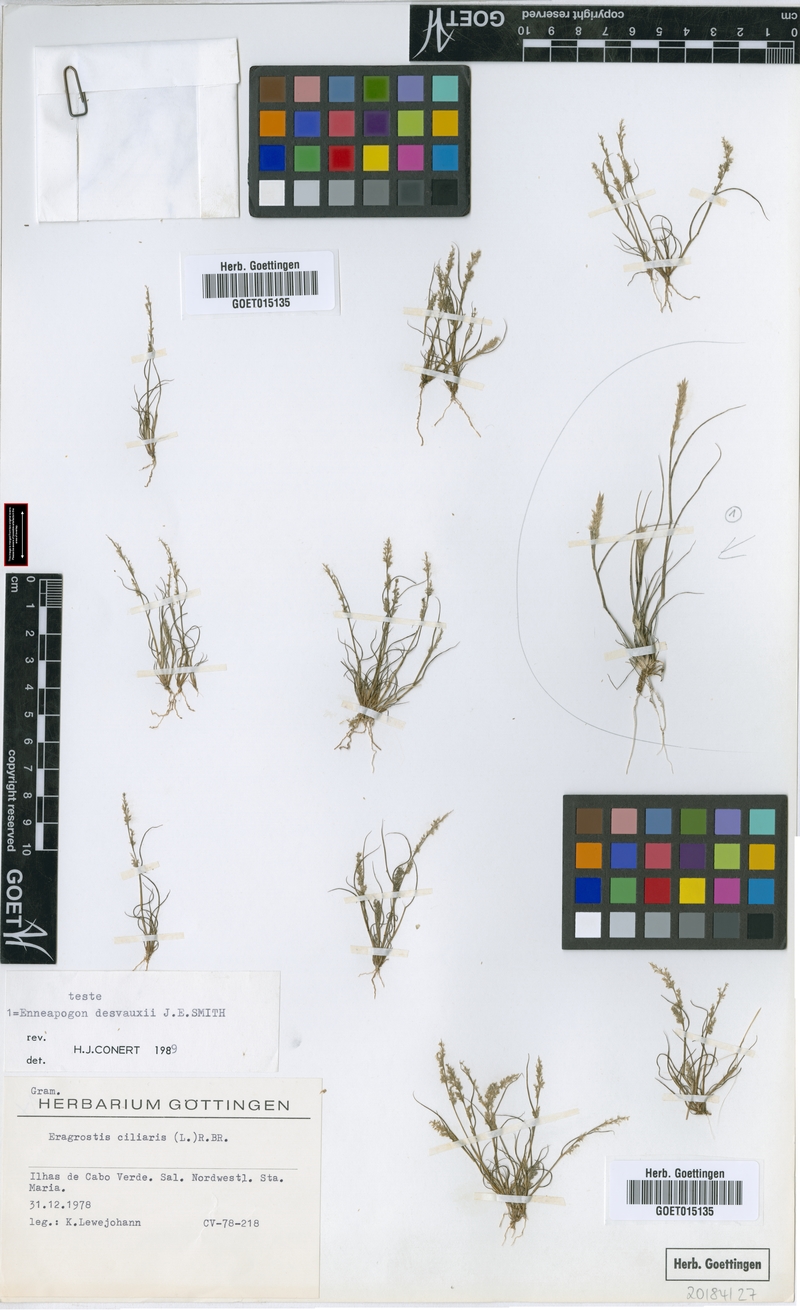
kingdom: Plantae
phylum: Tracheophyta
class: Liliopsida
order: Poales
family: Poaceae
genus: Enneapogon
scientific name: Enneapogon desvauxii
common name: Feather pappus grass
